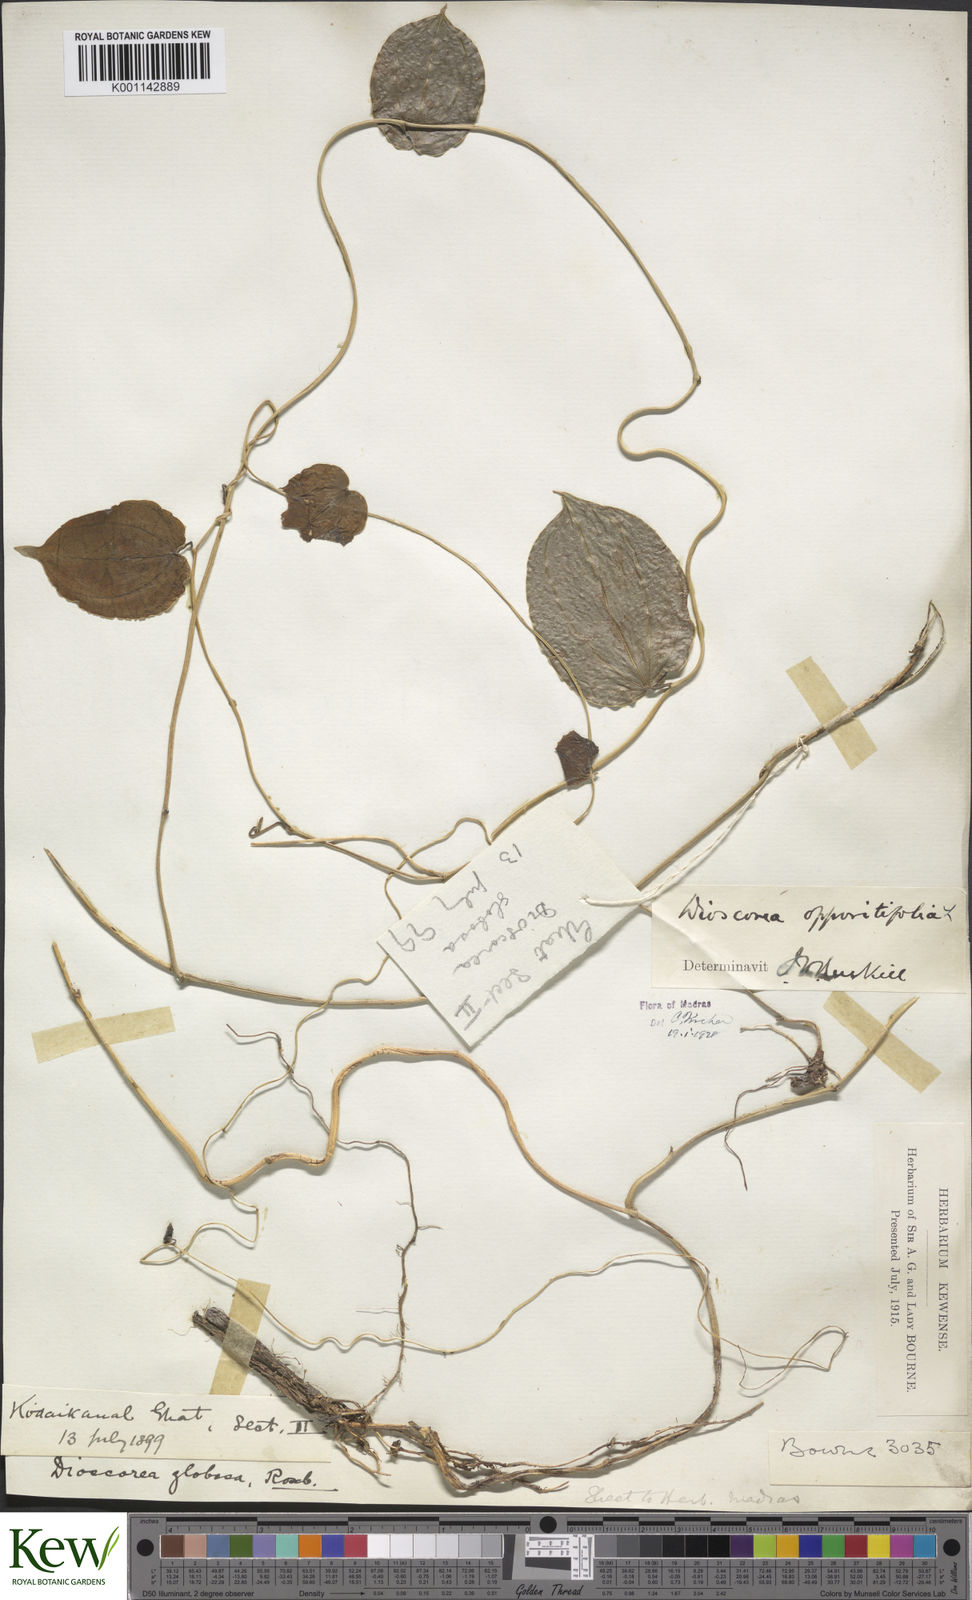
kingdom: Plantae
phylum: Tracheophyta
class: Liliopsida
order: Dioscoreales
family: Dioscoreaceae
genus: Dioscorea
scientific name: Dioscorea oppositifolia
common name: Chinese yam
